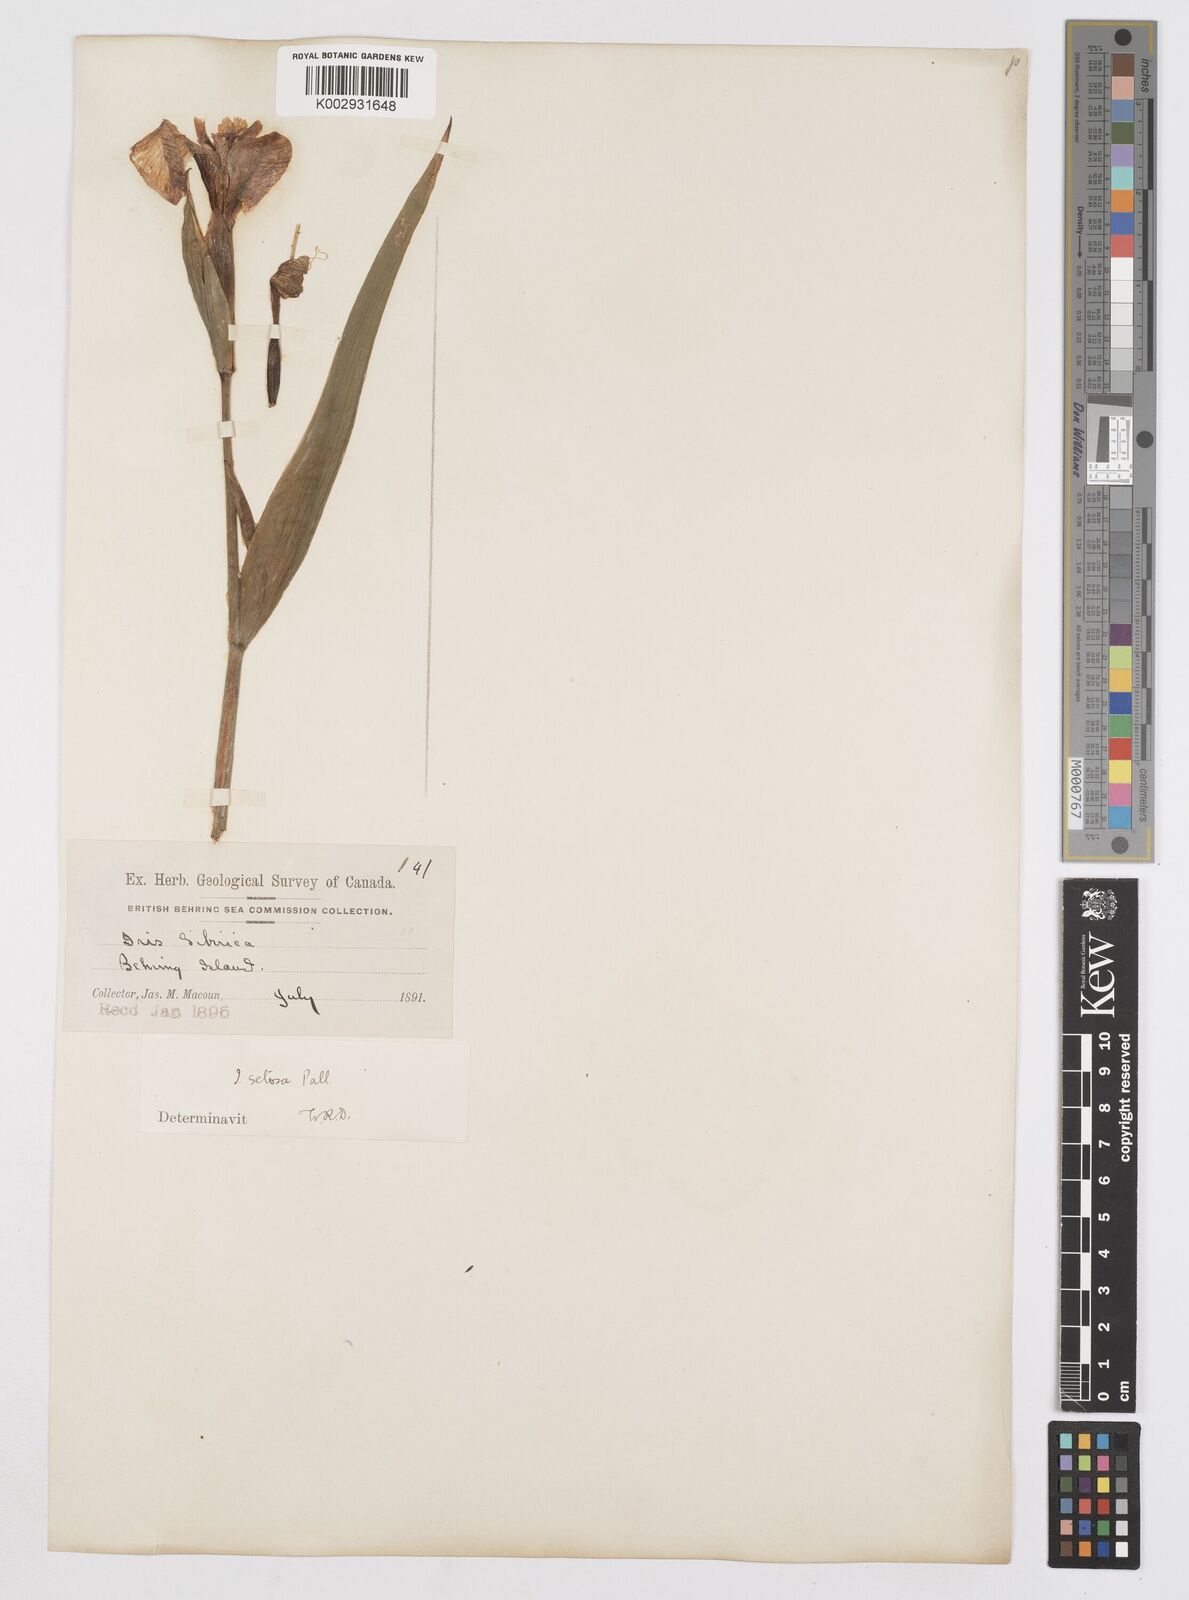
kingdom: Plantae
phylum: Tracheophyta
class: Liliopsida
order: Asparagales
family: Iridaceae
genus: Iris
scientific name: Iris setosa
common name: Arctic blue flag
